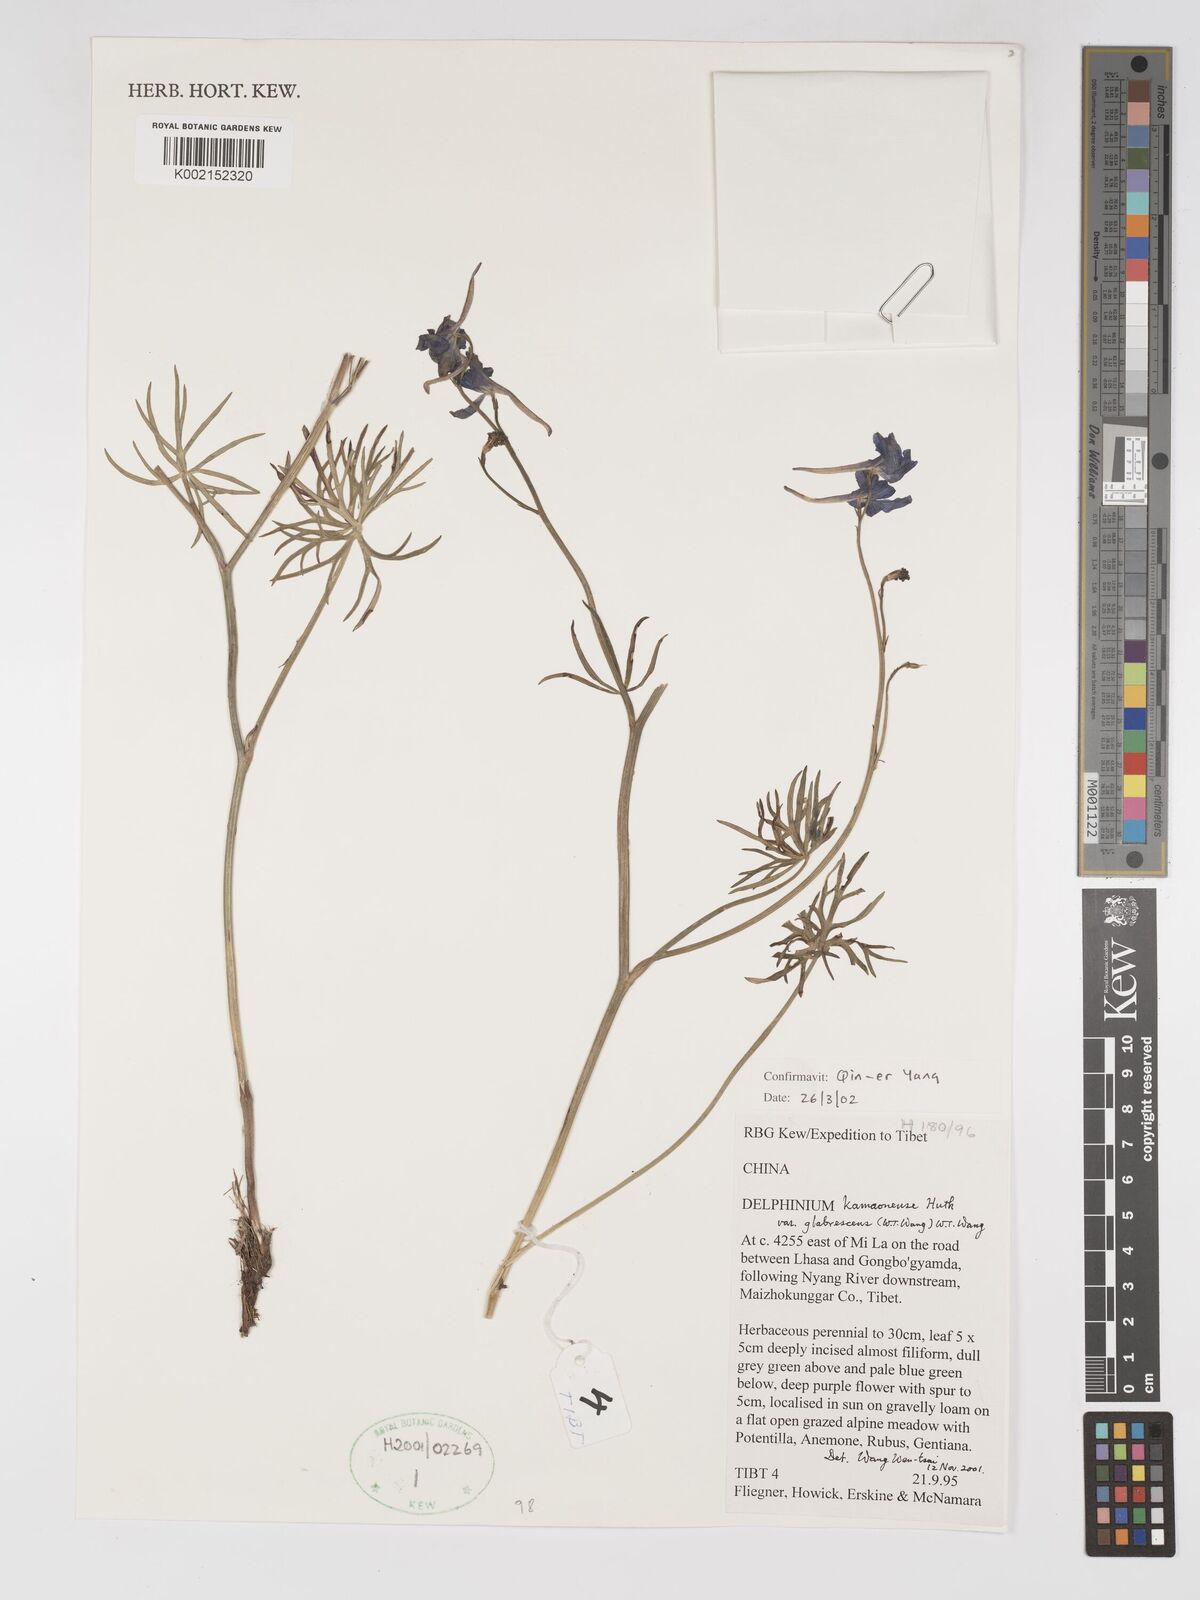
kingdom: Plantae
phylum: Tracheophyta
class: Magnoliopsida
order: Ranunculales
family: Ranunculaceae
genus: Delphinium
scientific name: Delphinium kamaonense
